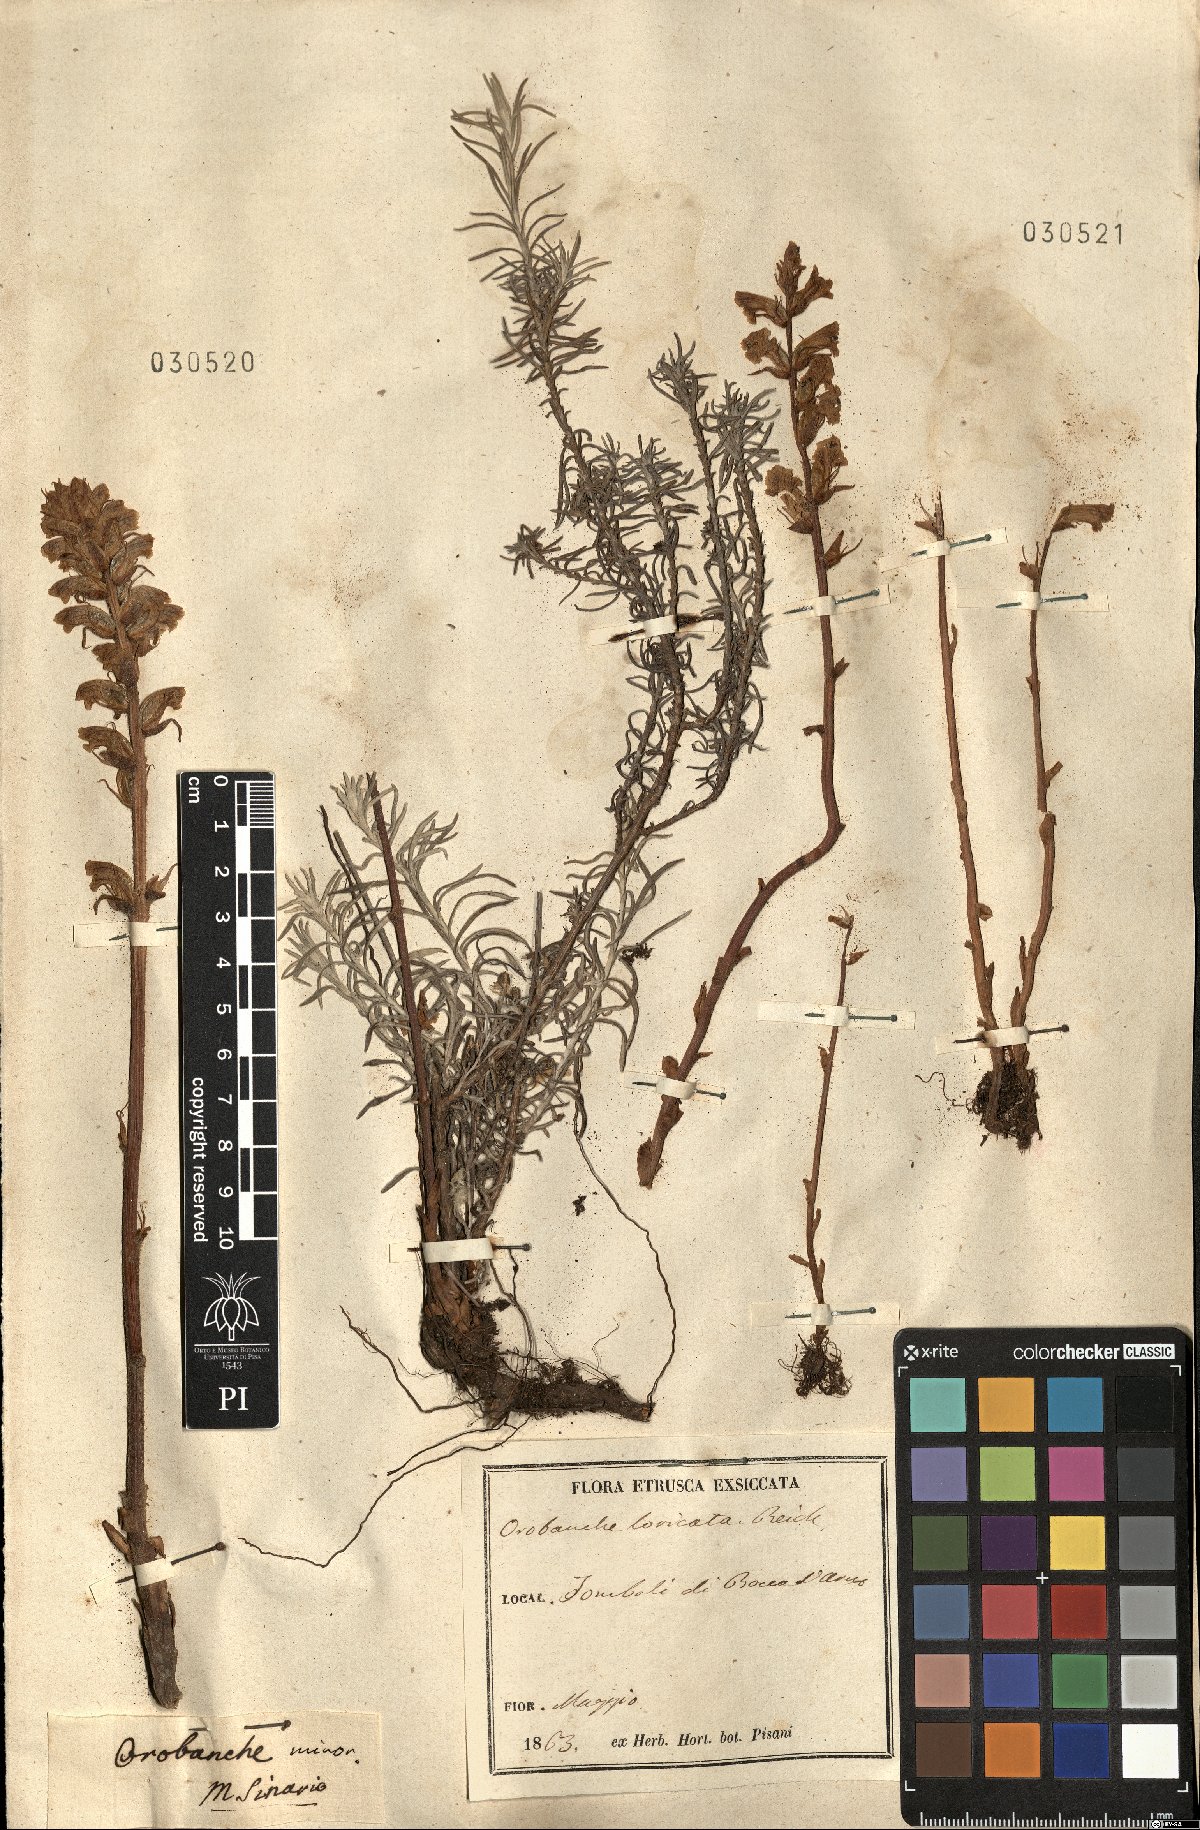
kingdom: Plantae
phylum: Tracheophyta
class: Magnoliopsida
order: Lamiales
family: Orobanchaceae
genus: Orobanche
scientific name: Orobanche artemisiae-campestris
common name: Oxtongue broomrape
